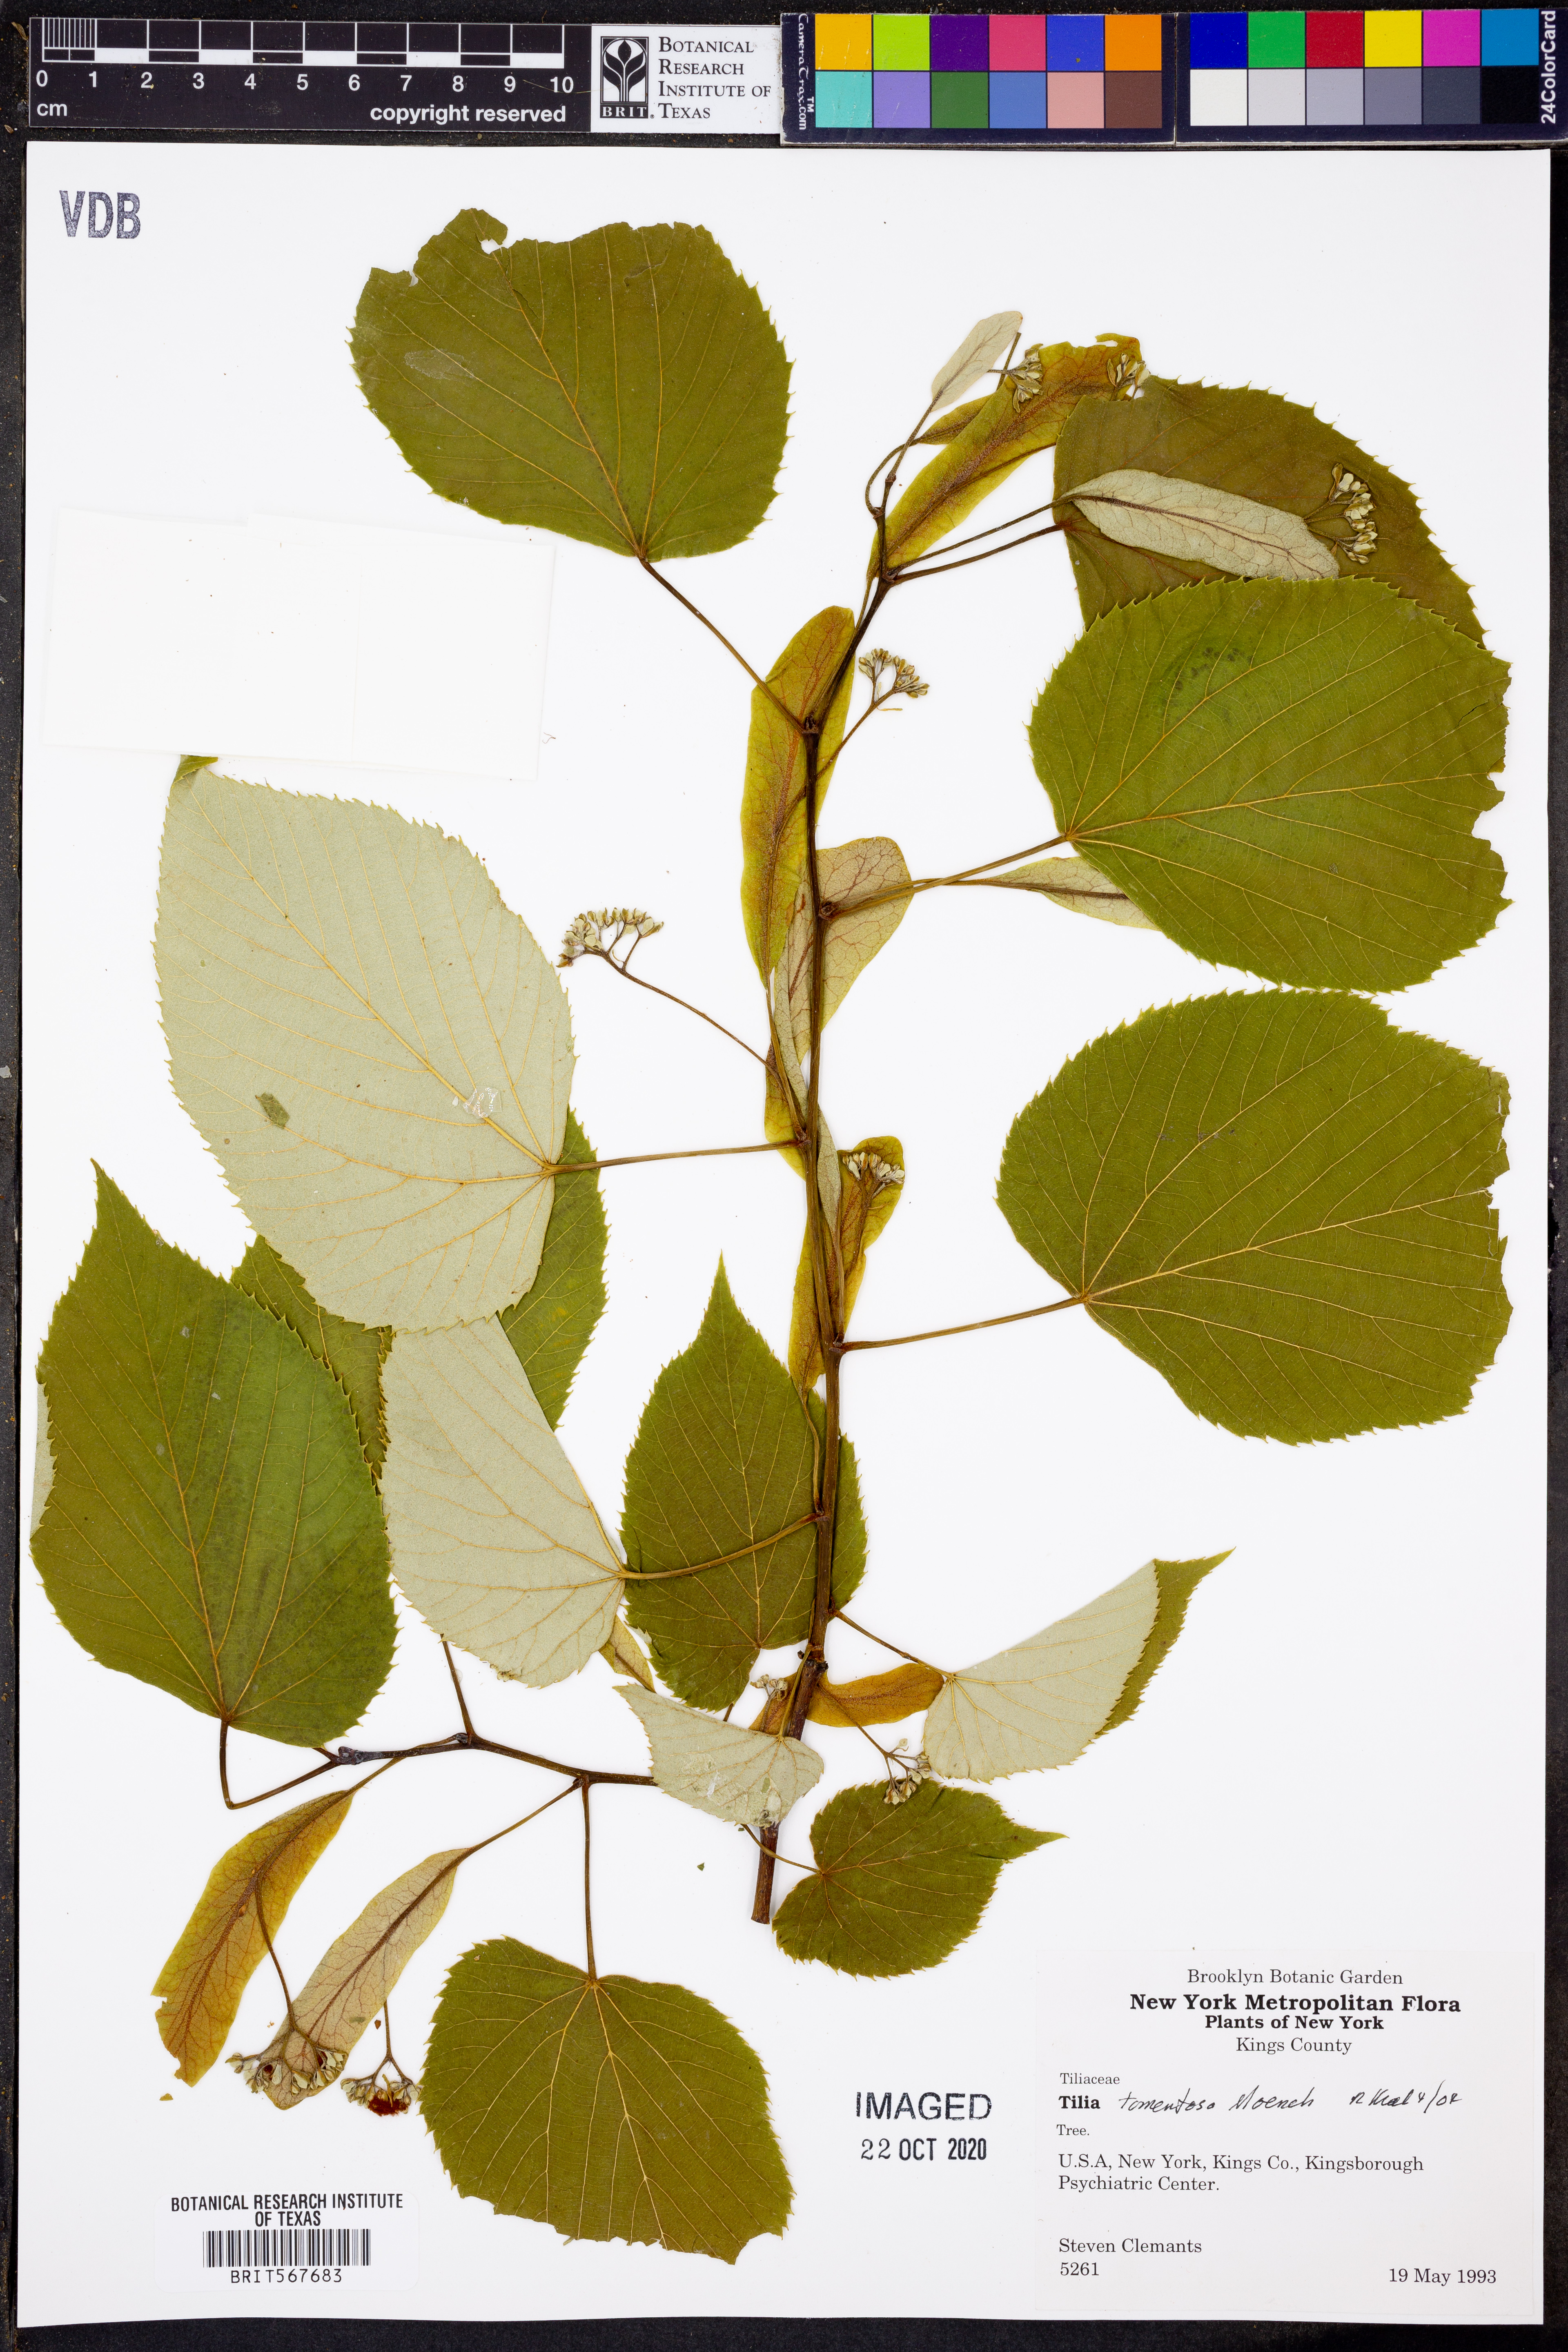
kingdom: Plantae
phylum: Tracheophyta
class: Magnoliopsida
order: Malvales
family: Malvaceae
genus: Tilia
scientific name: Tilia tomentosa
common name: Silver lime
